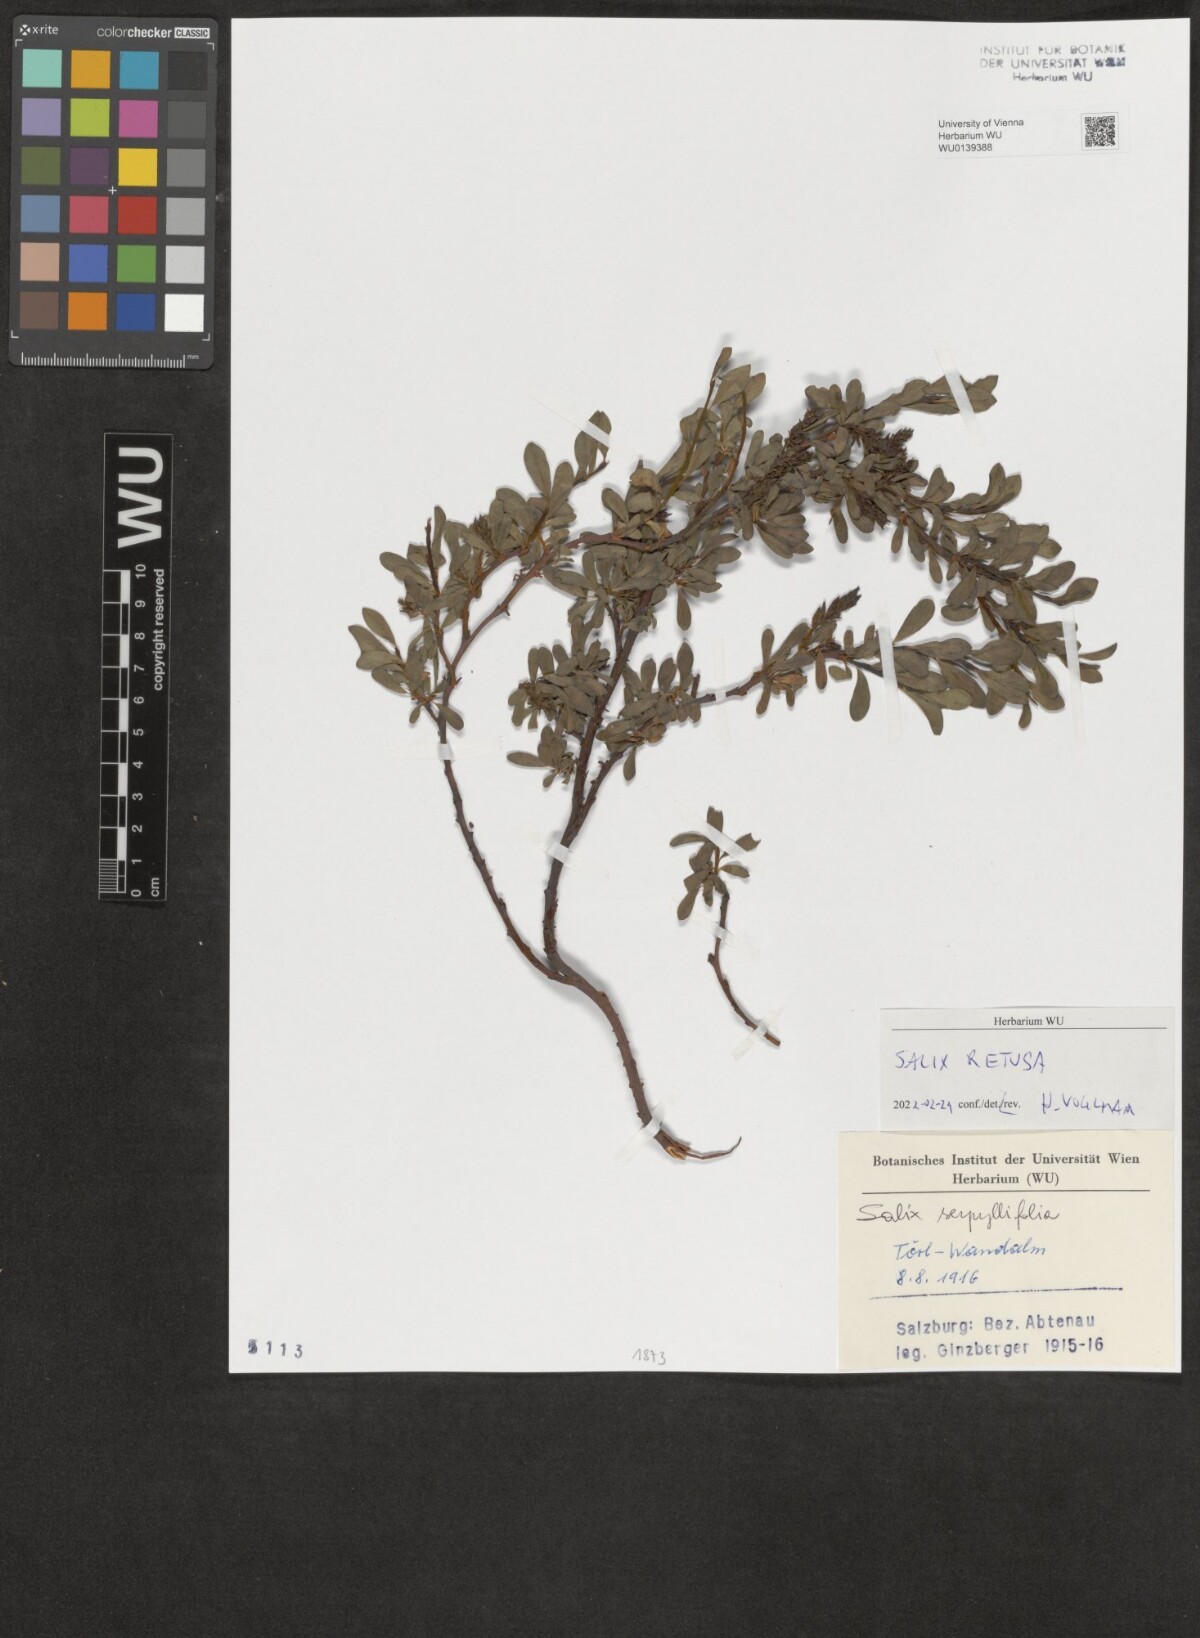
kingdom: Plantae
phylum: Tracheophyta
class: Magnoliopsida
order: Malpighiales
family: Salicaceae
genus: Salix
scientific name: Salix retusa
